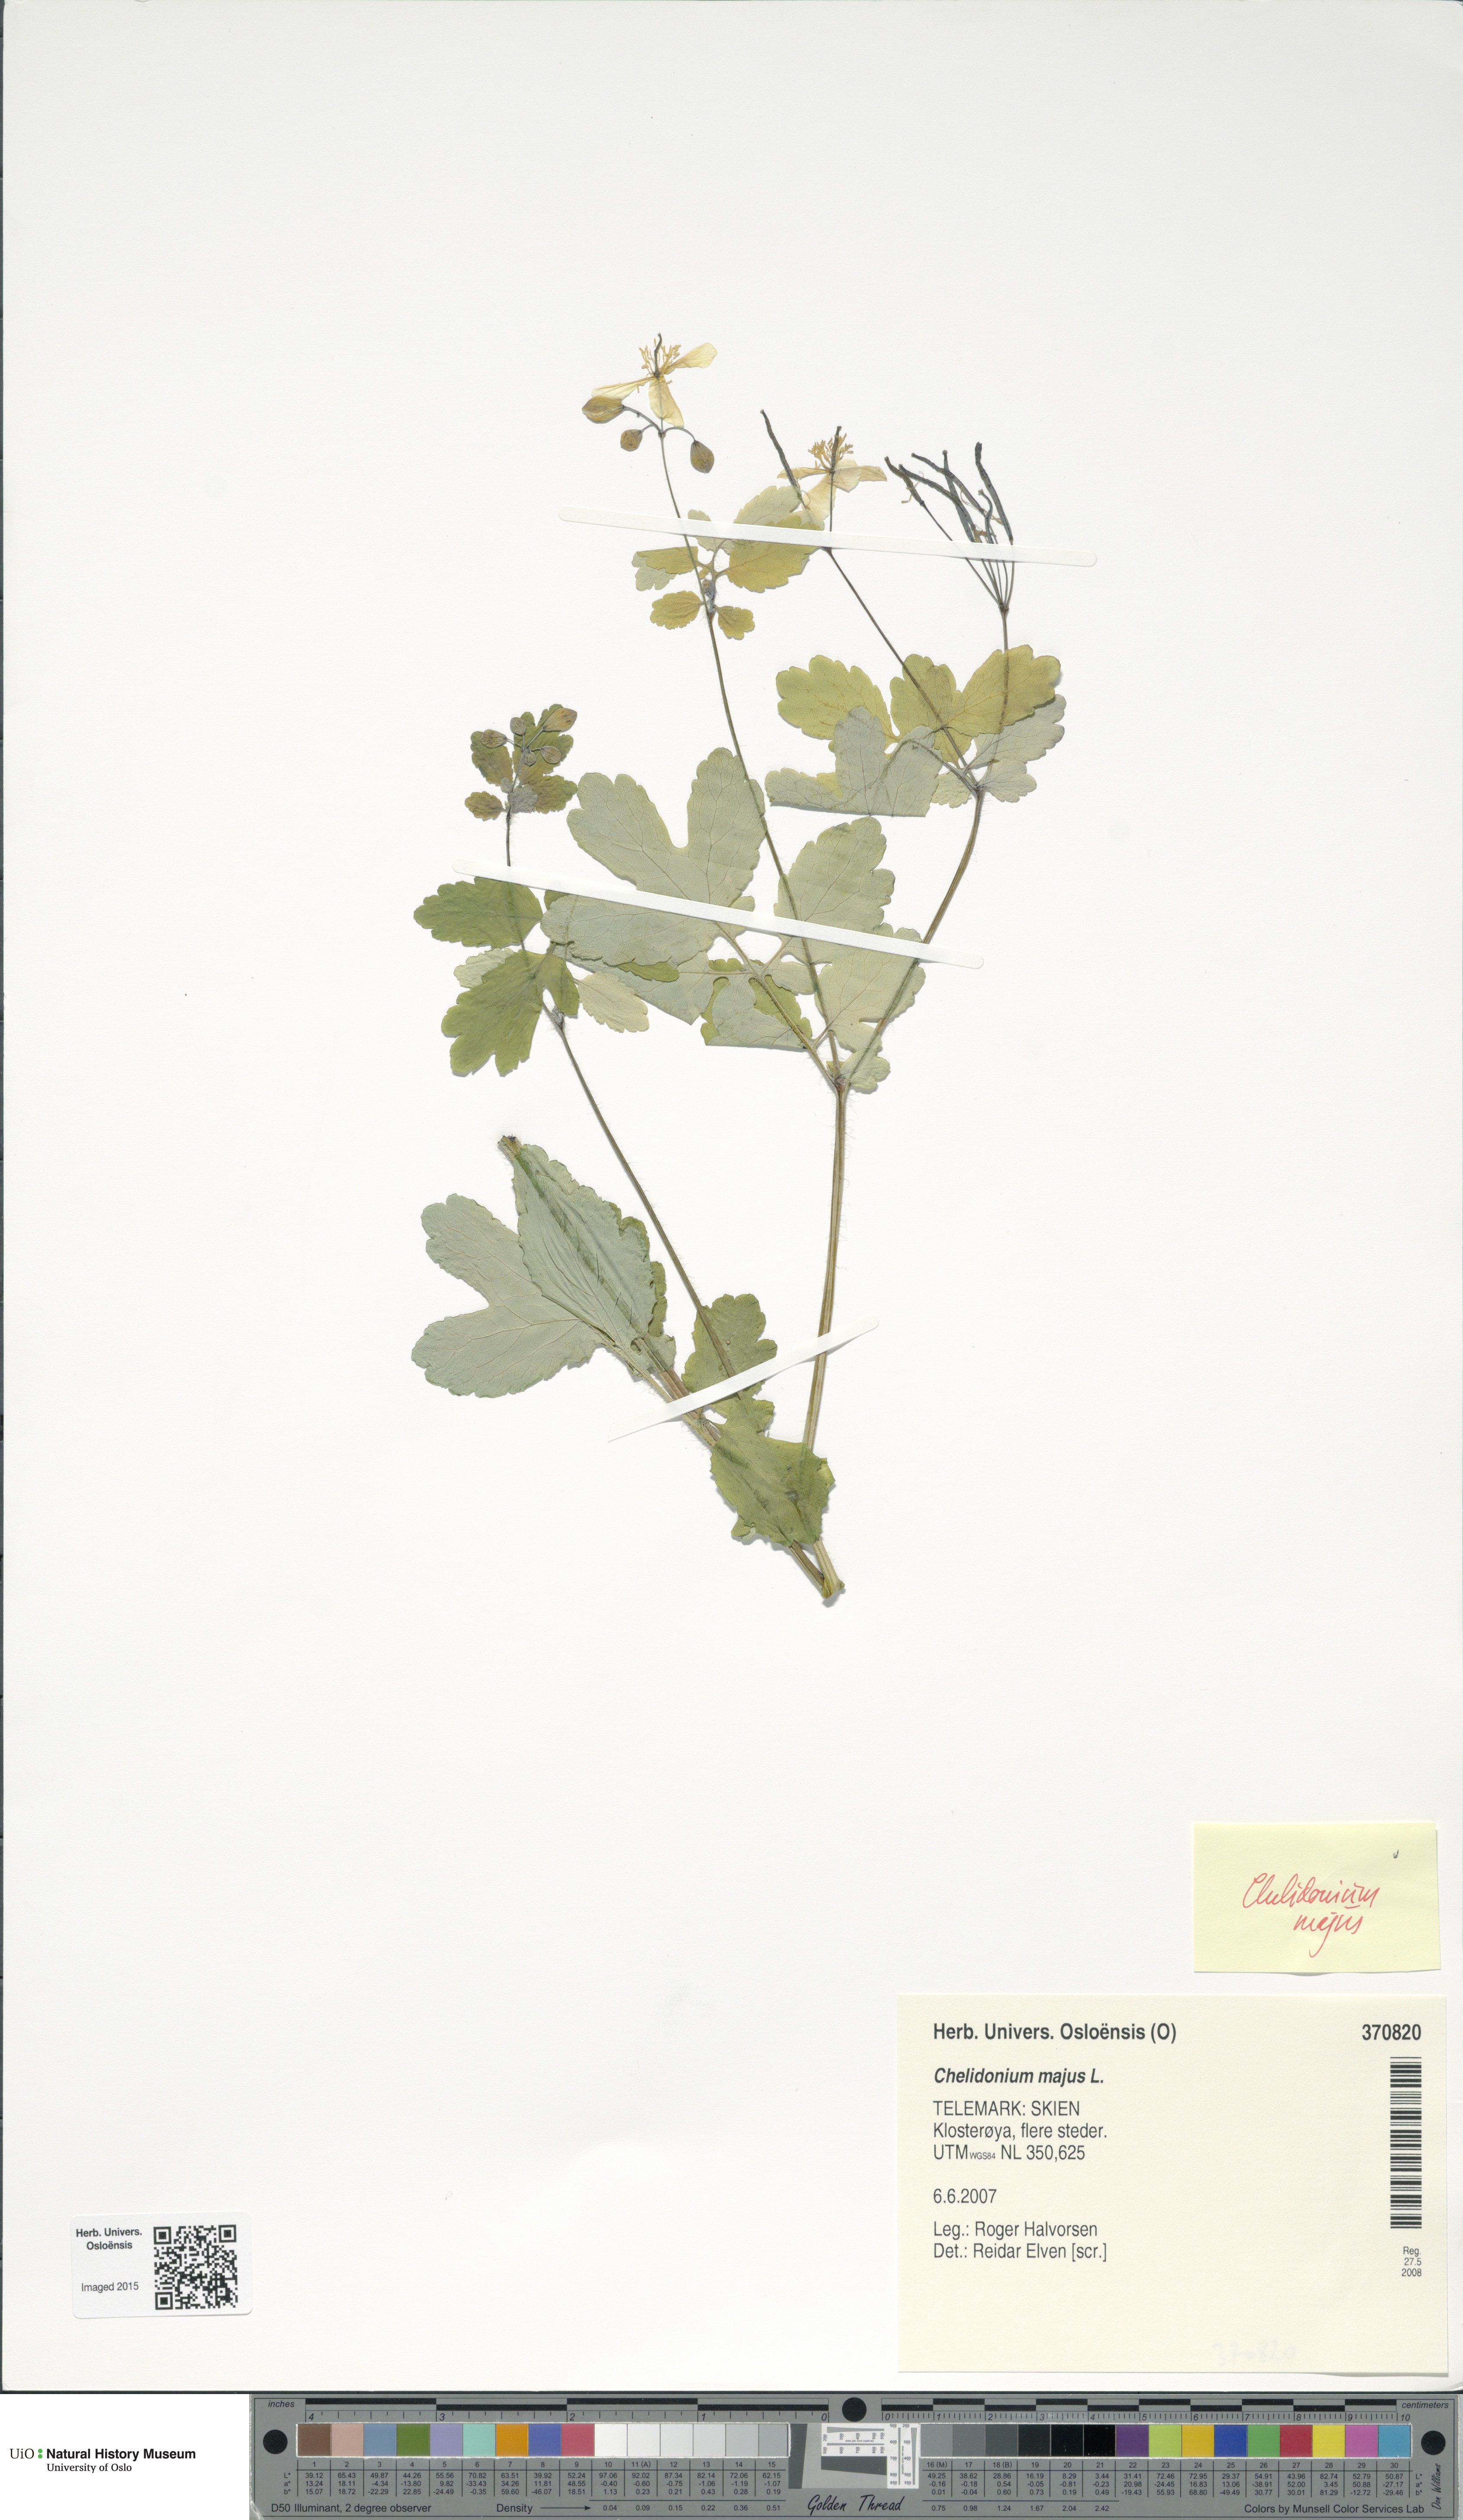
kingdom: Plantae
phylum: Tracheophyta
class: Magnoliopsida
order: Ranunculales
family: Papaveraceae
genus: Chelidonium
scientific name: Chelidonium majus
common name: Greater celandine
